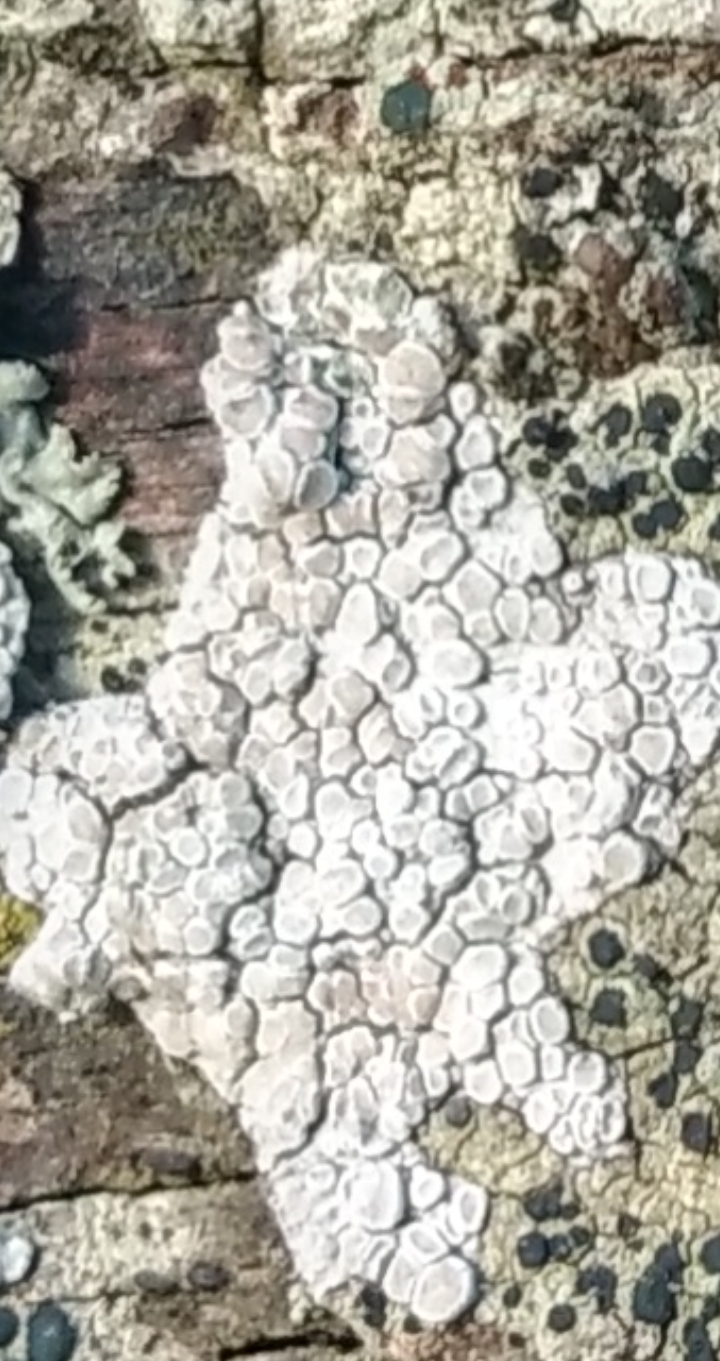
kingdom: Fungi
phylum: Ascomycota
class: Lecanoromycetes
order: Lecanorales
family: Lecanoraceae
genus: Glaucomaria
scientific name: Glaucomaria carpinea
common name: hviddugget kantskivelav
